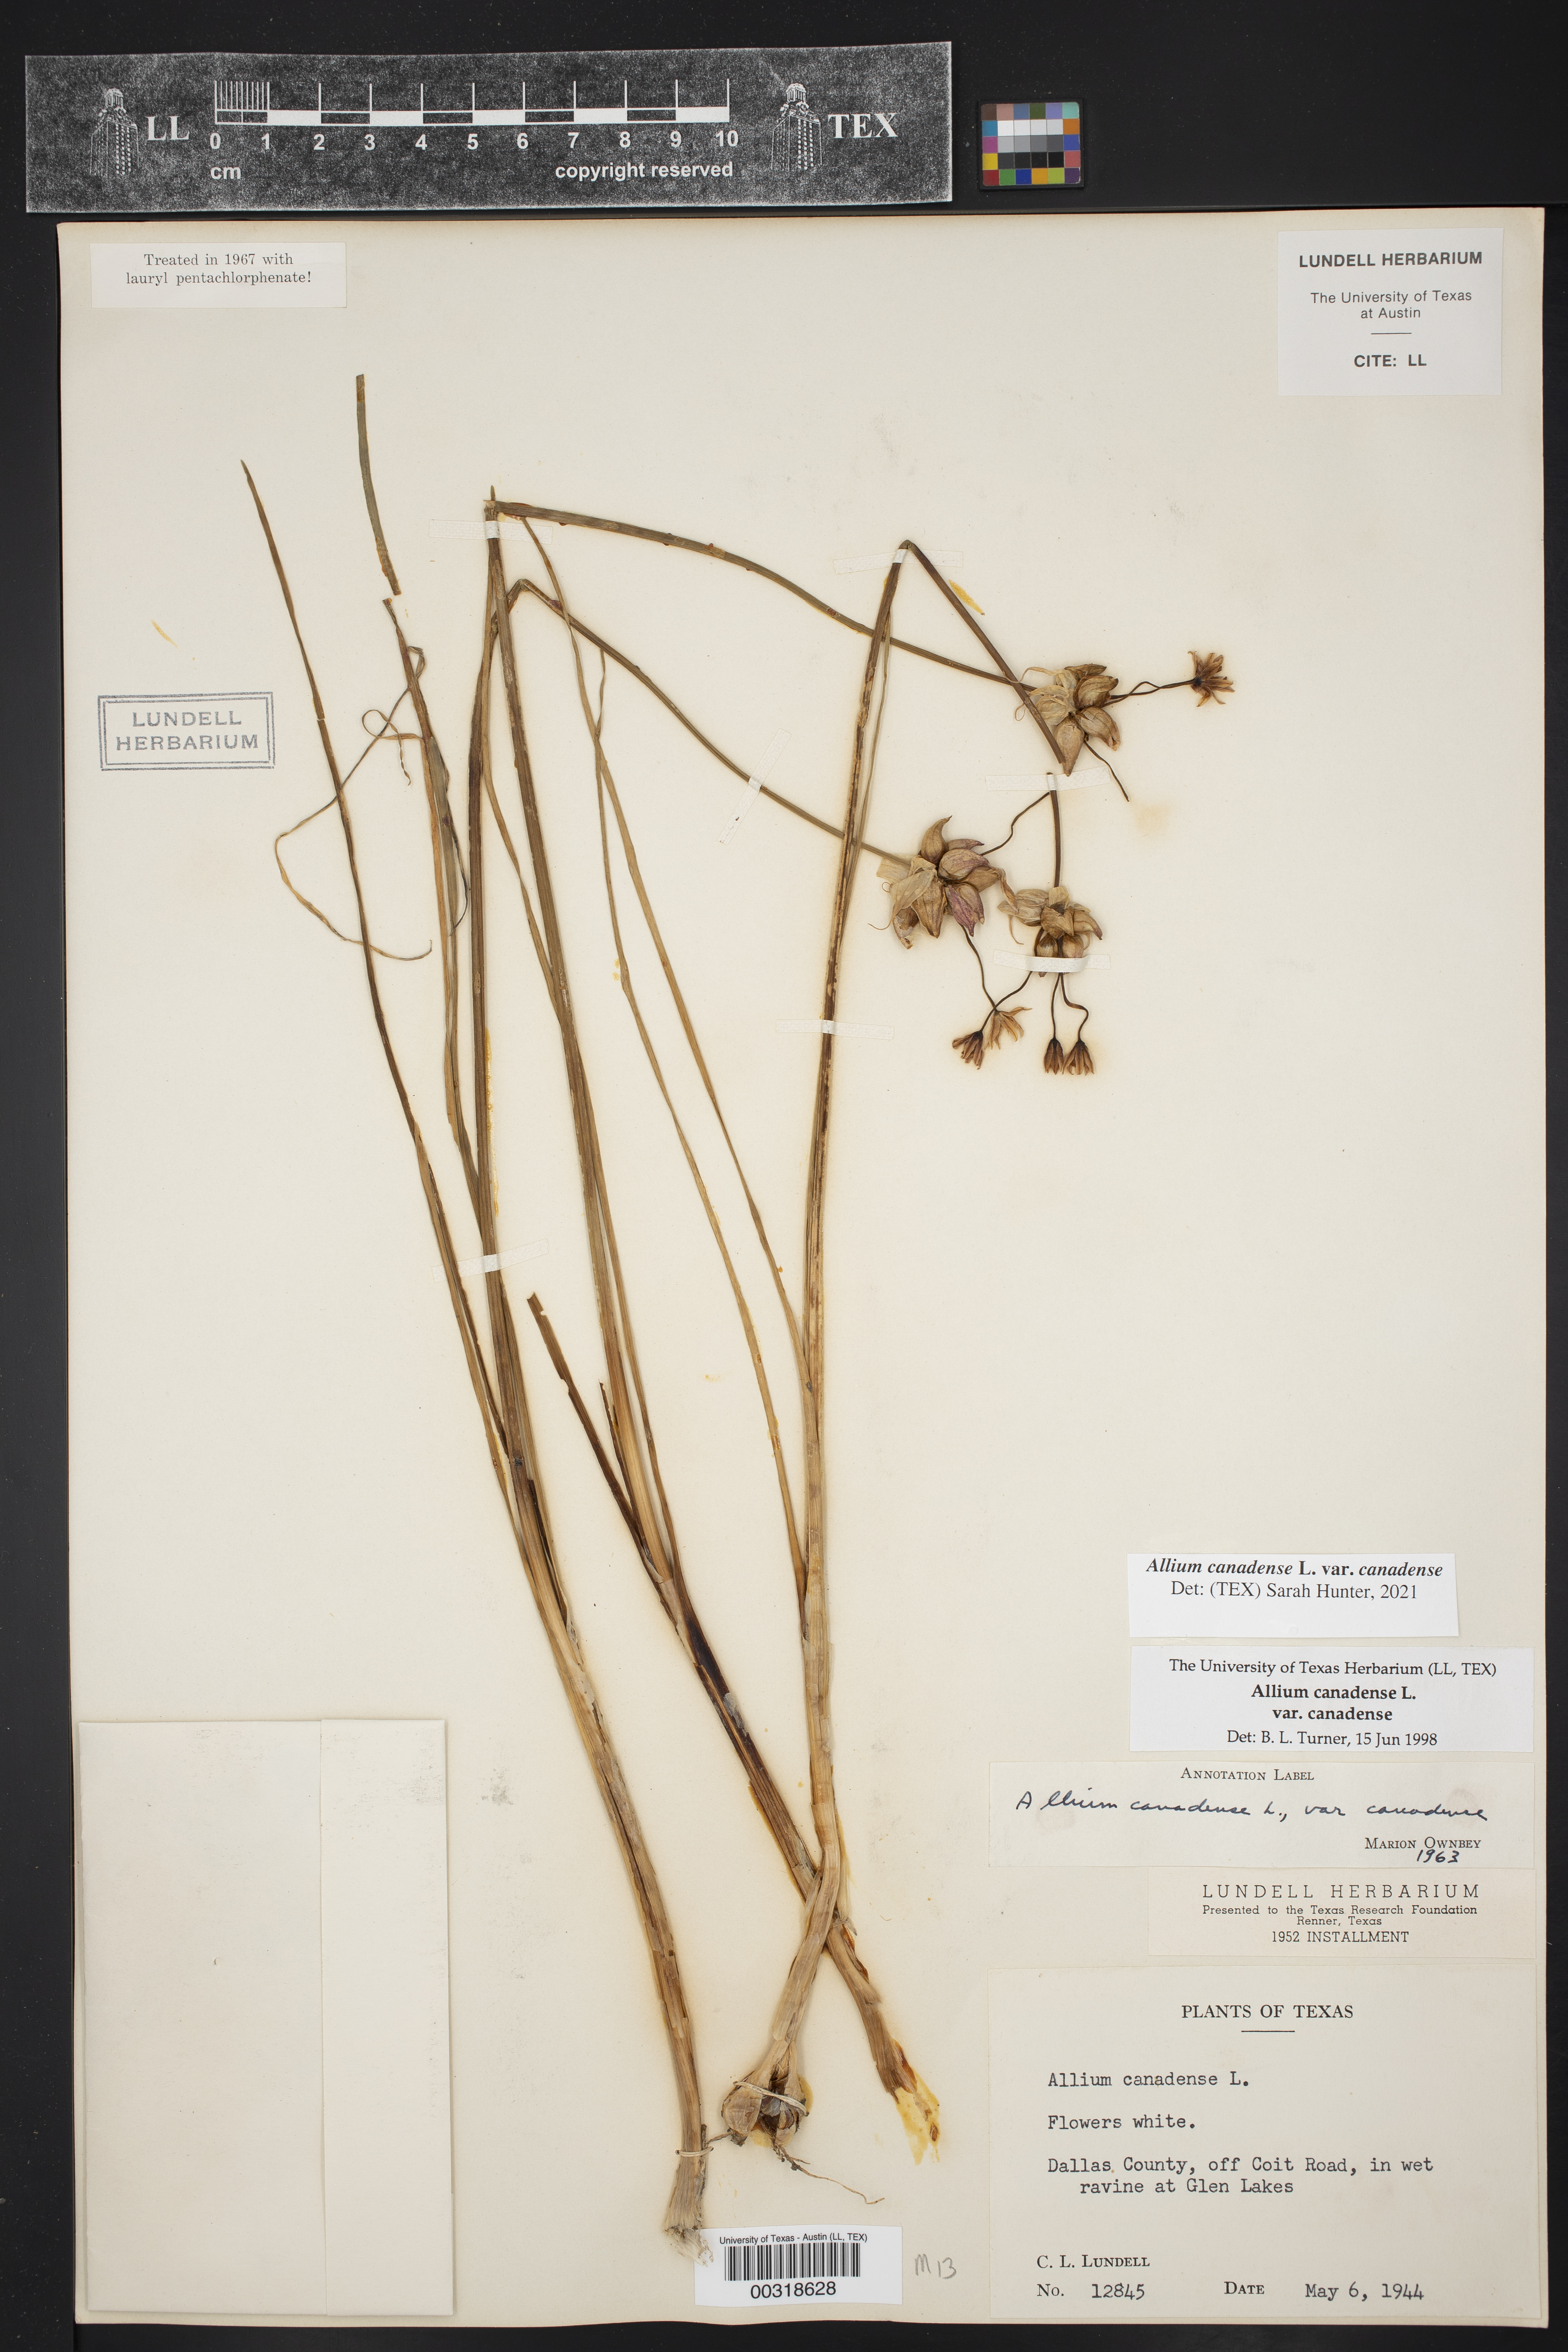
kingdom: Plantae
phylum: Tracheophyta
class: Liliopsida
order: Asparagales
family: Amaryllidaceae
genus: Allium
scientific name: Allium canadense
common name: Meadow garlic
